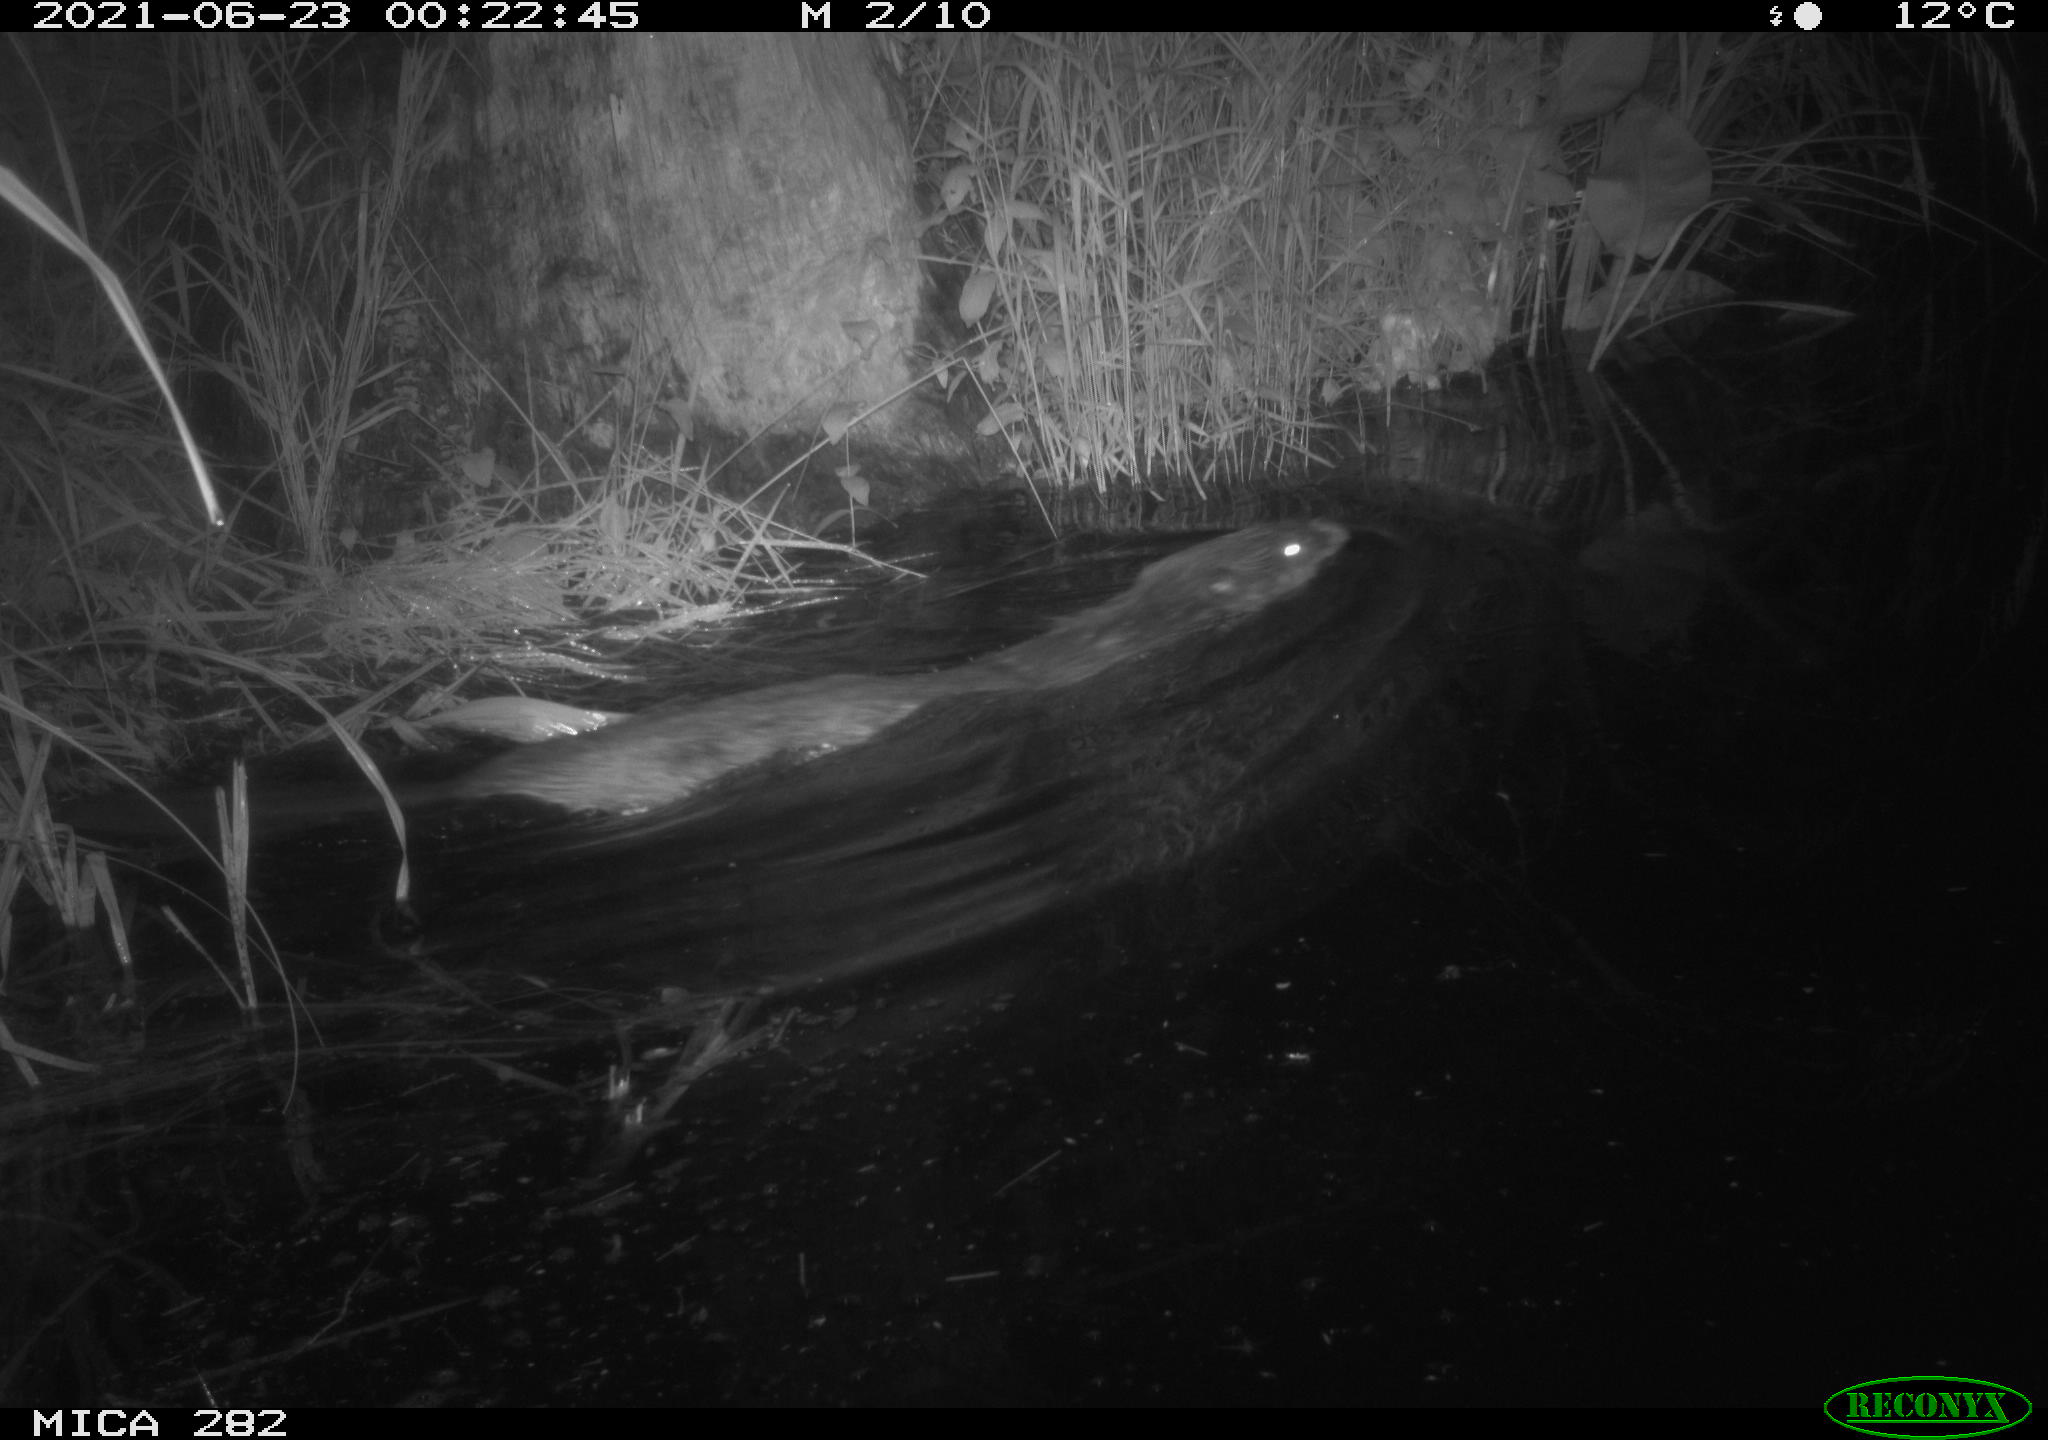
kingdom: Animalia
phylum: Chordata
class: Mammalia
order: Rodentia
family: Castoridae
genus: Castor
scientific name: Castor fiber
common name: Eurasian beaver
